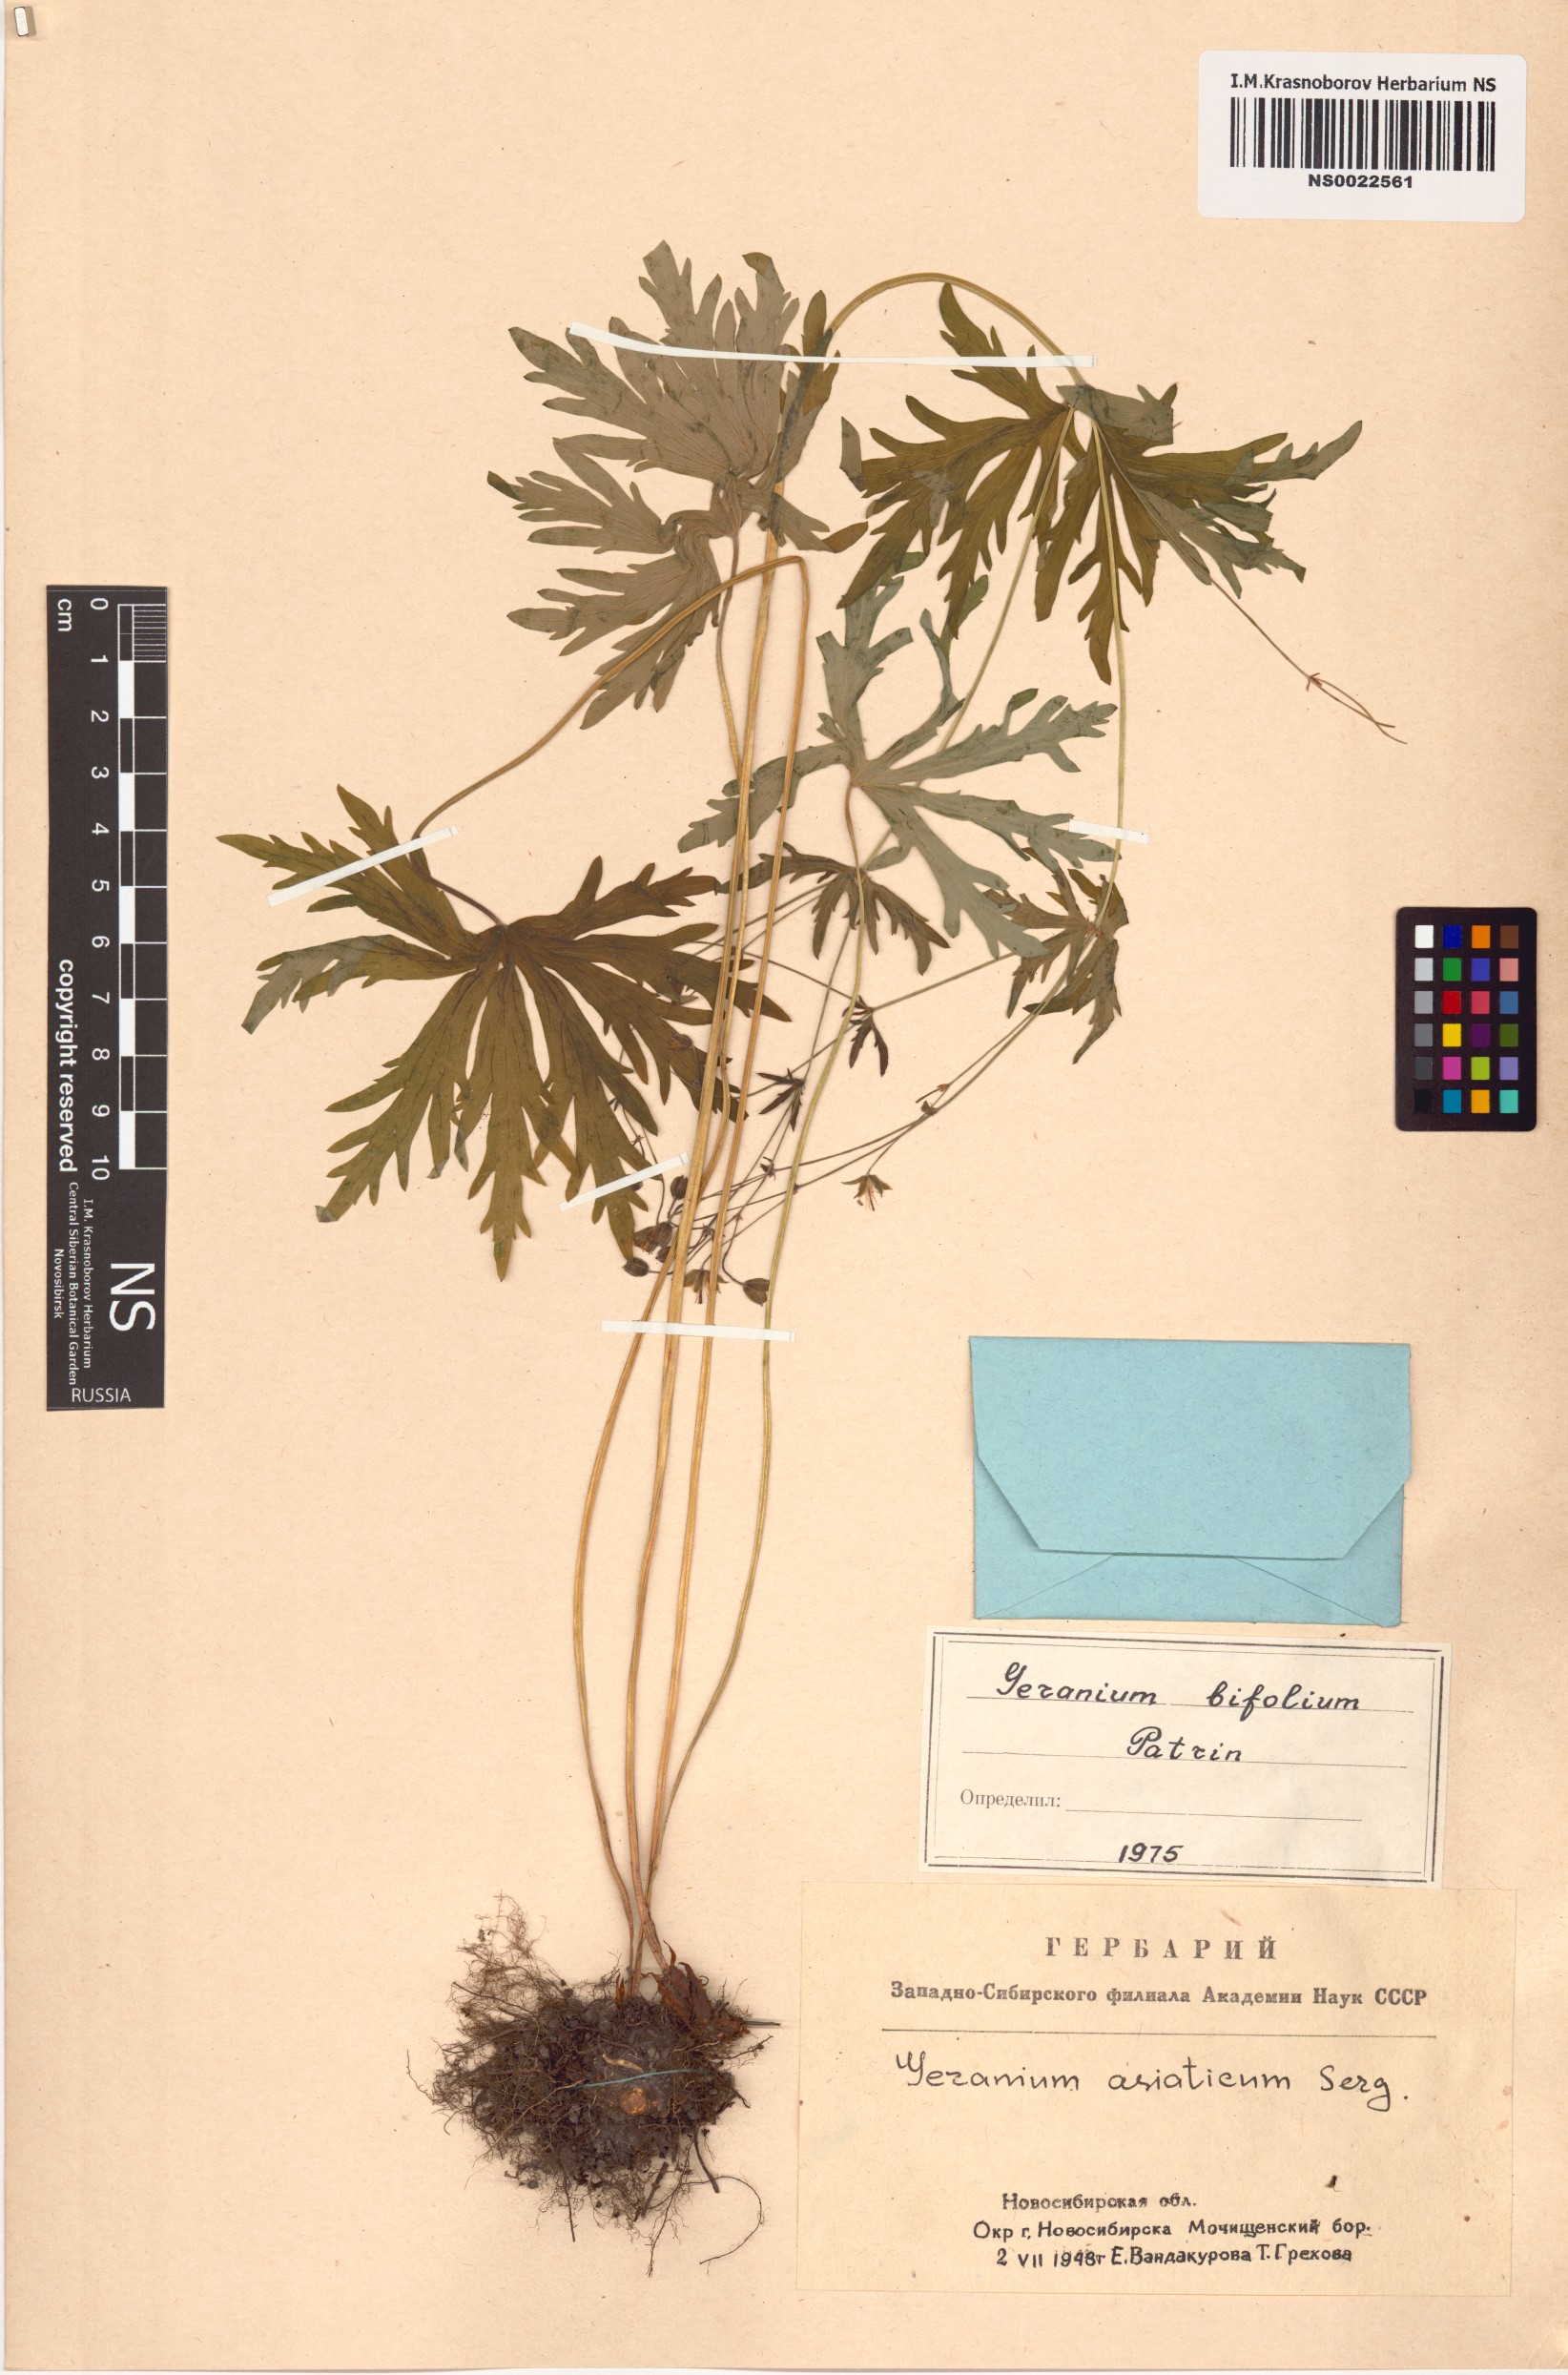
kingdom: Plantae
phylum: Tracheophyta
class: Magnoliopsida
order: Geraniales
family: Geraniaceae
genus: Geranium
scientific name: Geranium pseudosibiricum
